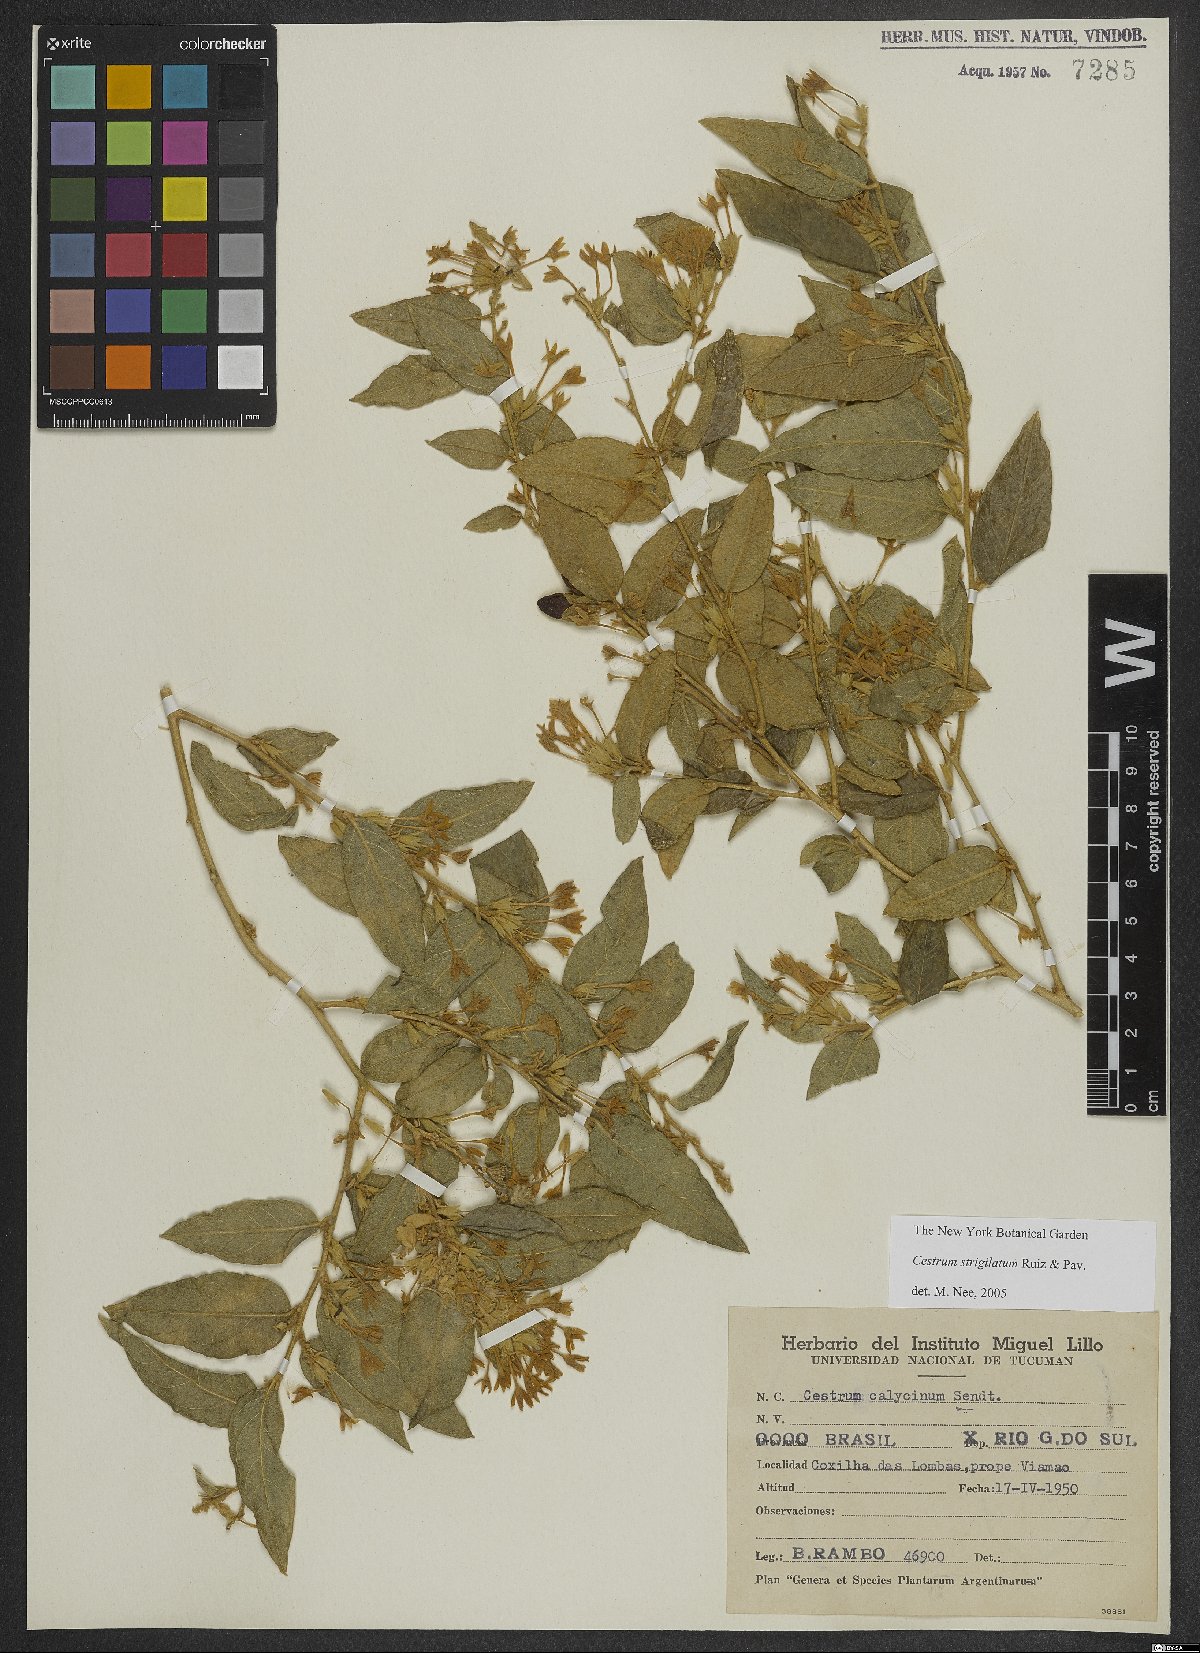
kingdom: Plantae
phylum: Tracheophyta
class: Magnoliopsida
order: Solanales
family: Solanaceae
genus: Cestrum
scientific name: Cestrum strigillatum
